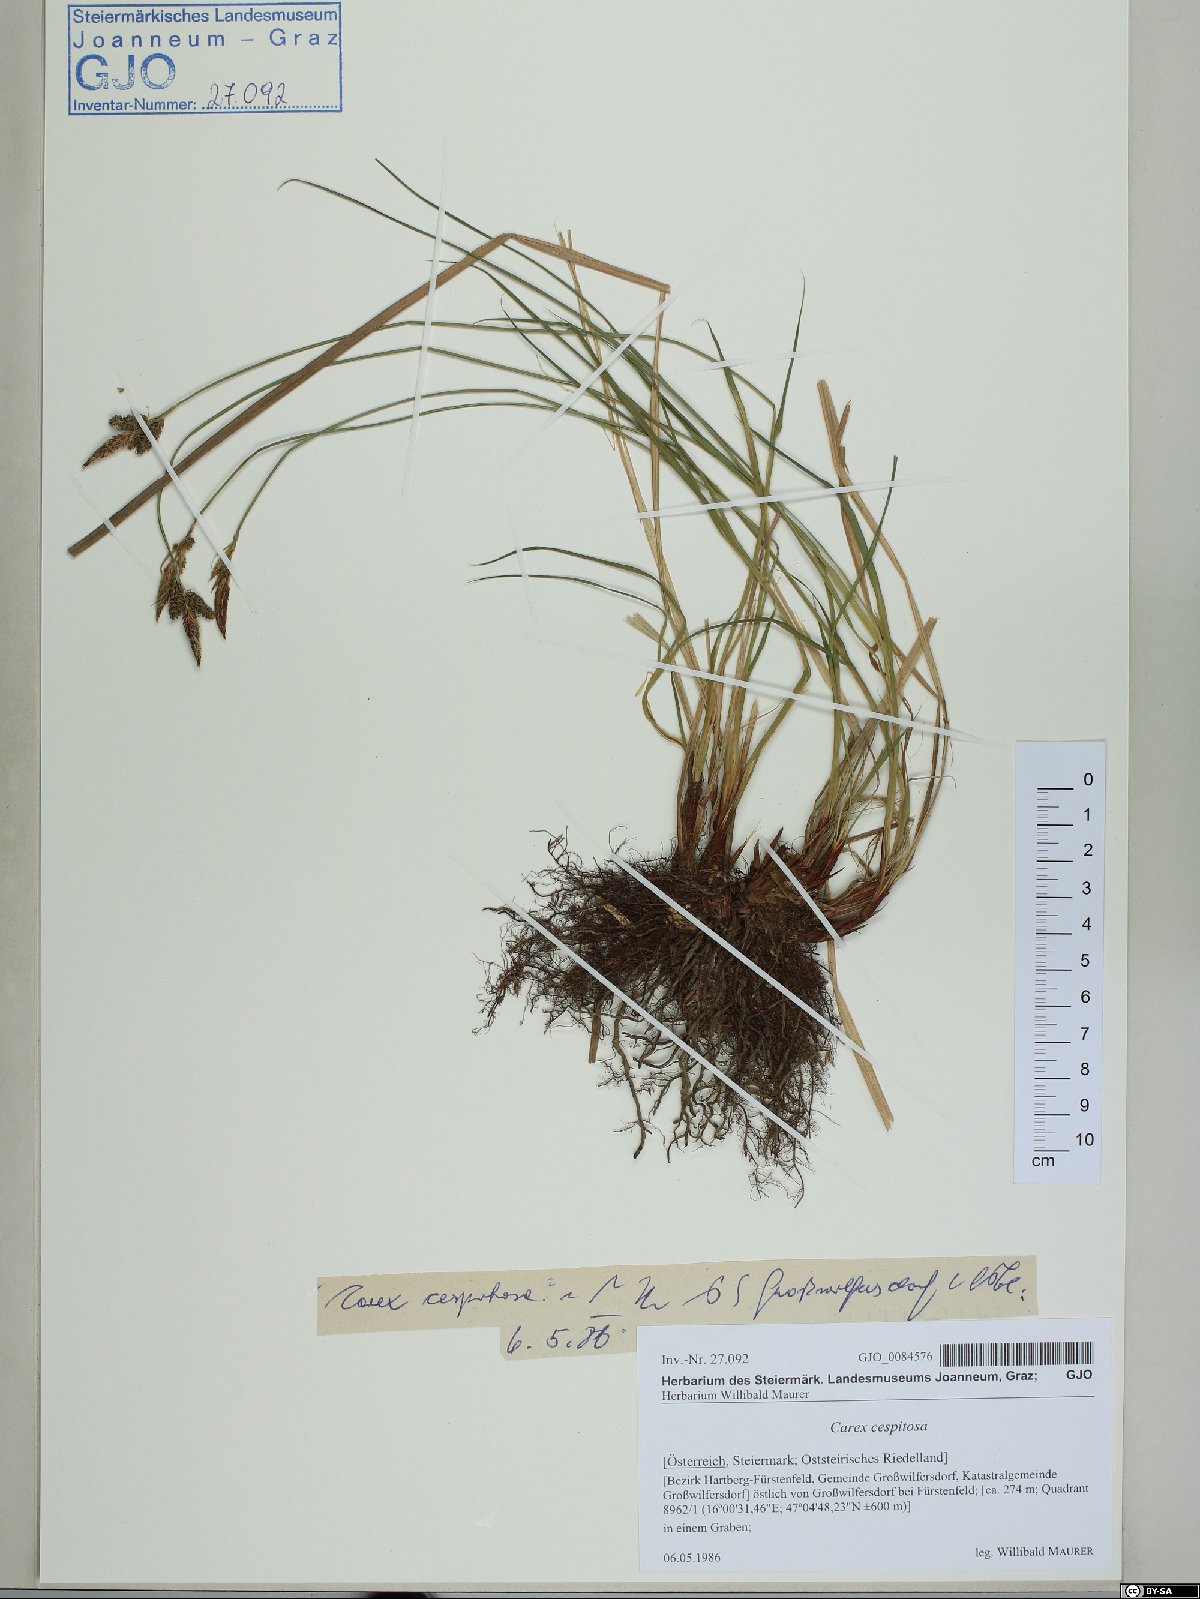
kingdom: Plantae
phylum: Tracheophyta
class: Liliopsida
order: Poales
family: Cyperaceae
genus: Carex
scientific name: Carex cespitosa
